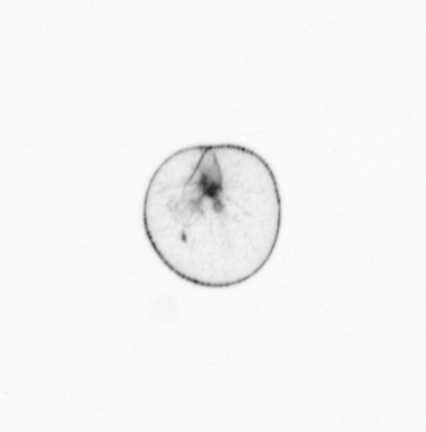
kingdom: Chromista
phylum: Myzozoa
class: Dinophyceae
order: Noctilucales
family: Noctilucaceae
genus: Noctiluca
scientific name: Noctiluca scintillans
